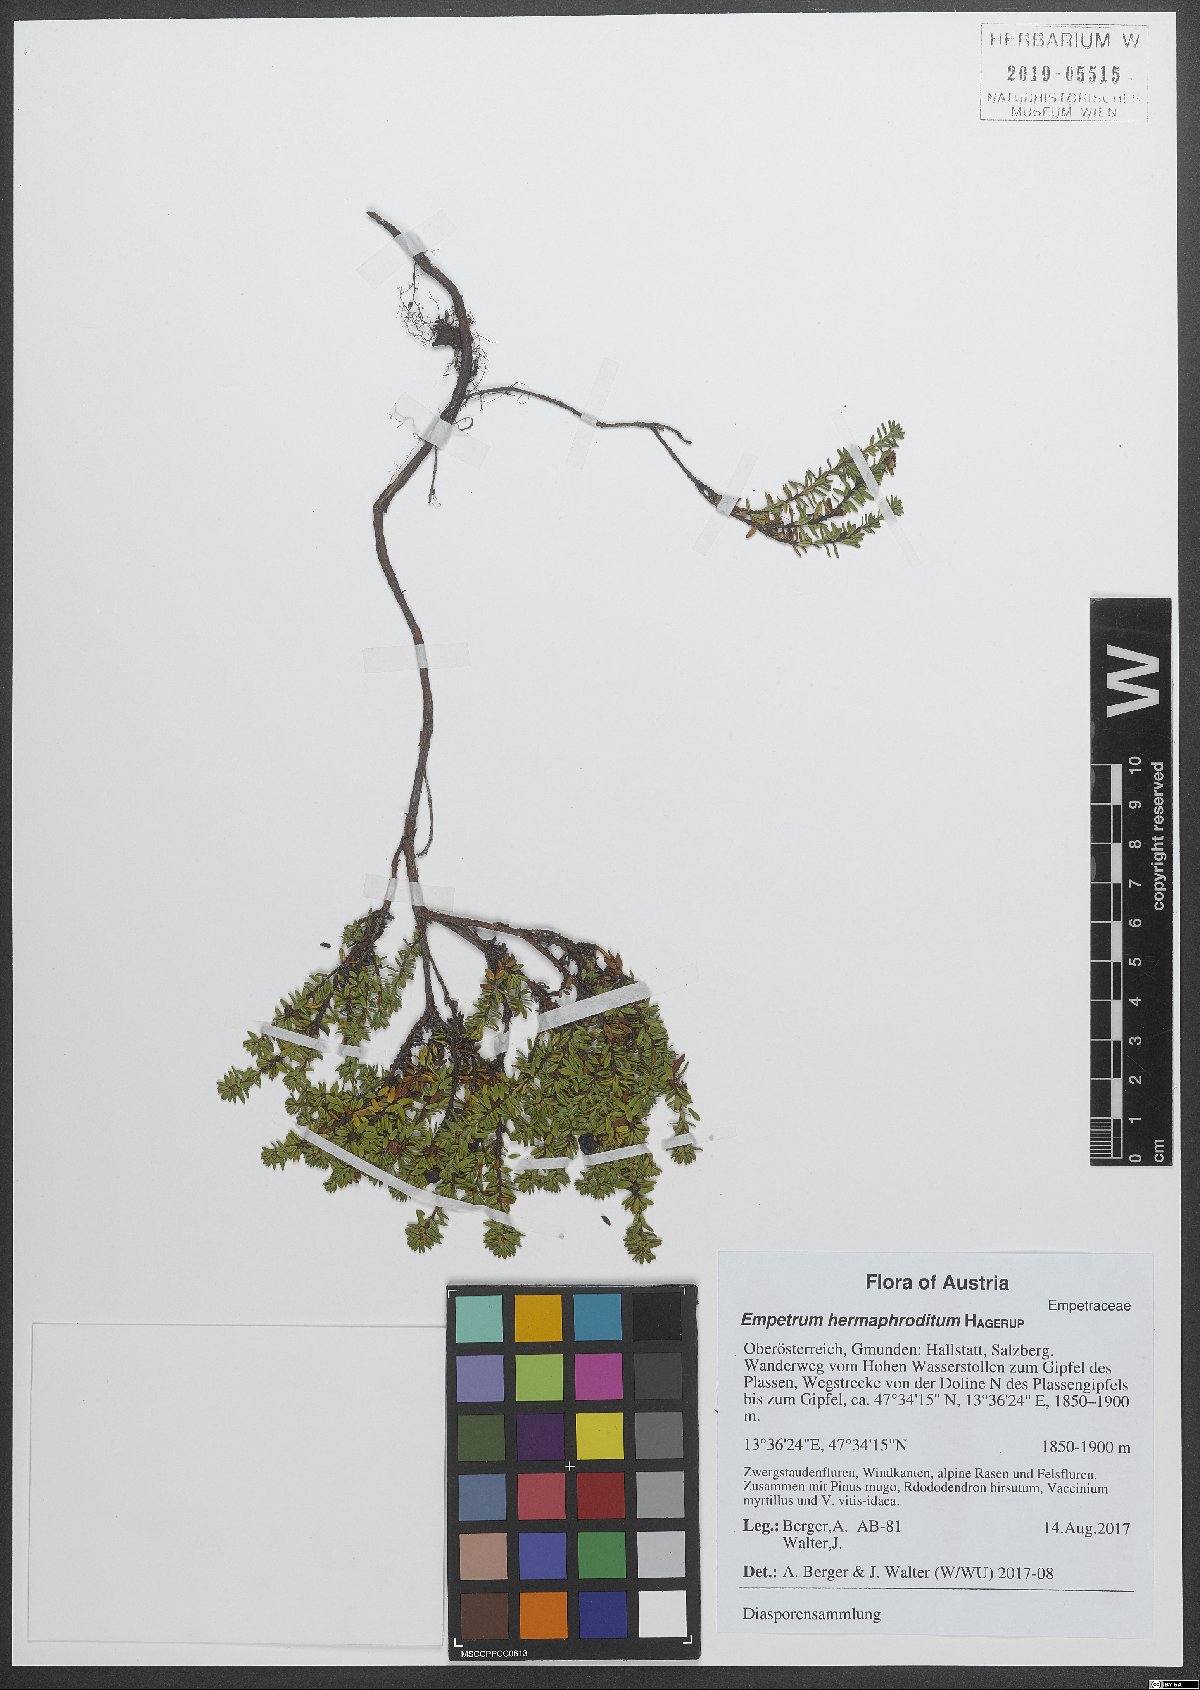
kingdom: Plantae
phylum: Tracheophyta
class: Magnoliopsida
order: Ericales
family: Ericaceae
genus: Empetrum
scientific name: Empetrum hermaphroditum
